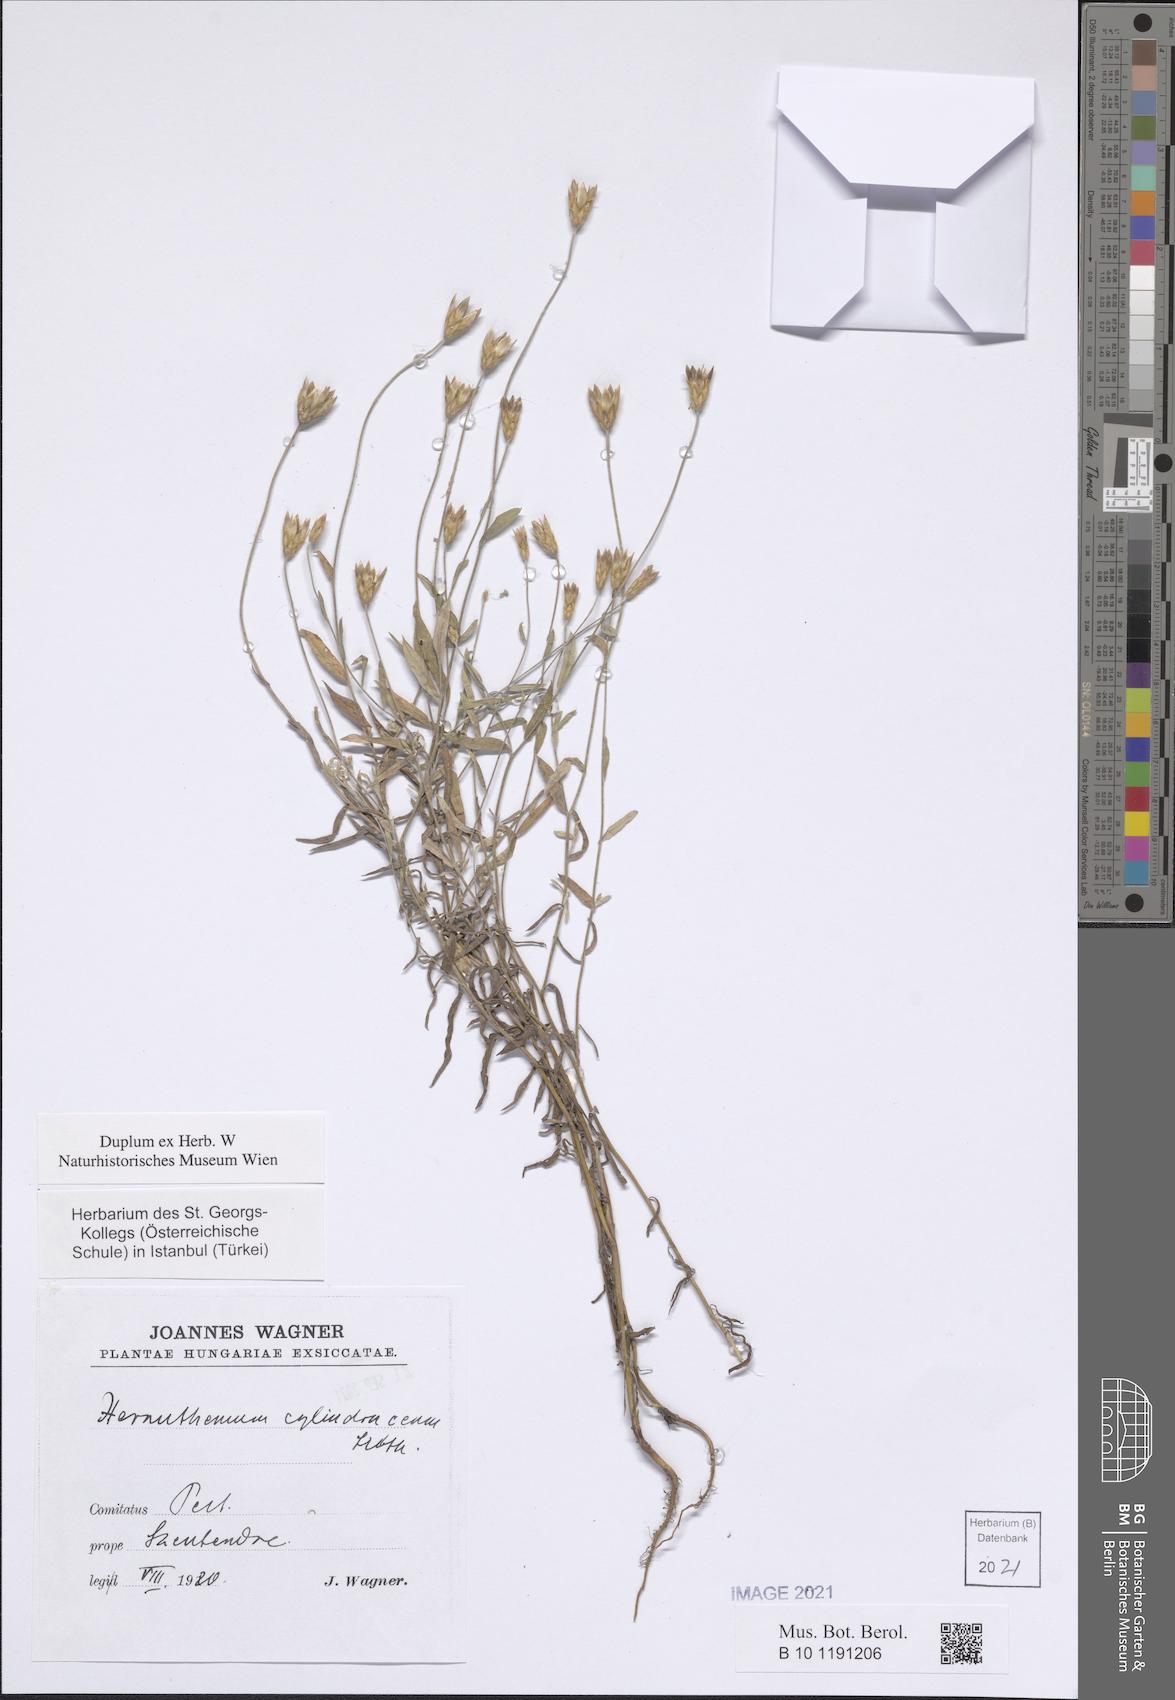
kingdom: Plantae
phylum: Tracheophyta
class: Magnoliopsida
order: Asterales
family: Asteraceae
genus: Xeranthemum
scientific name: Xeranthemum cylindraceum
